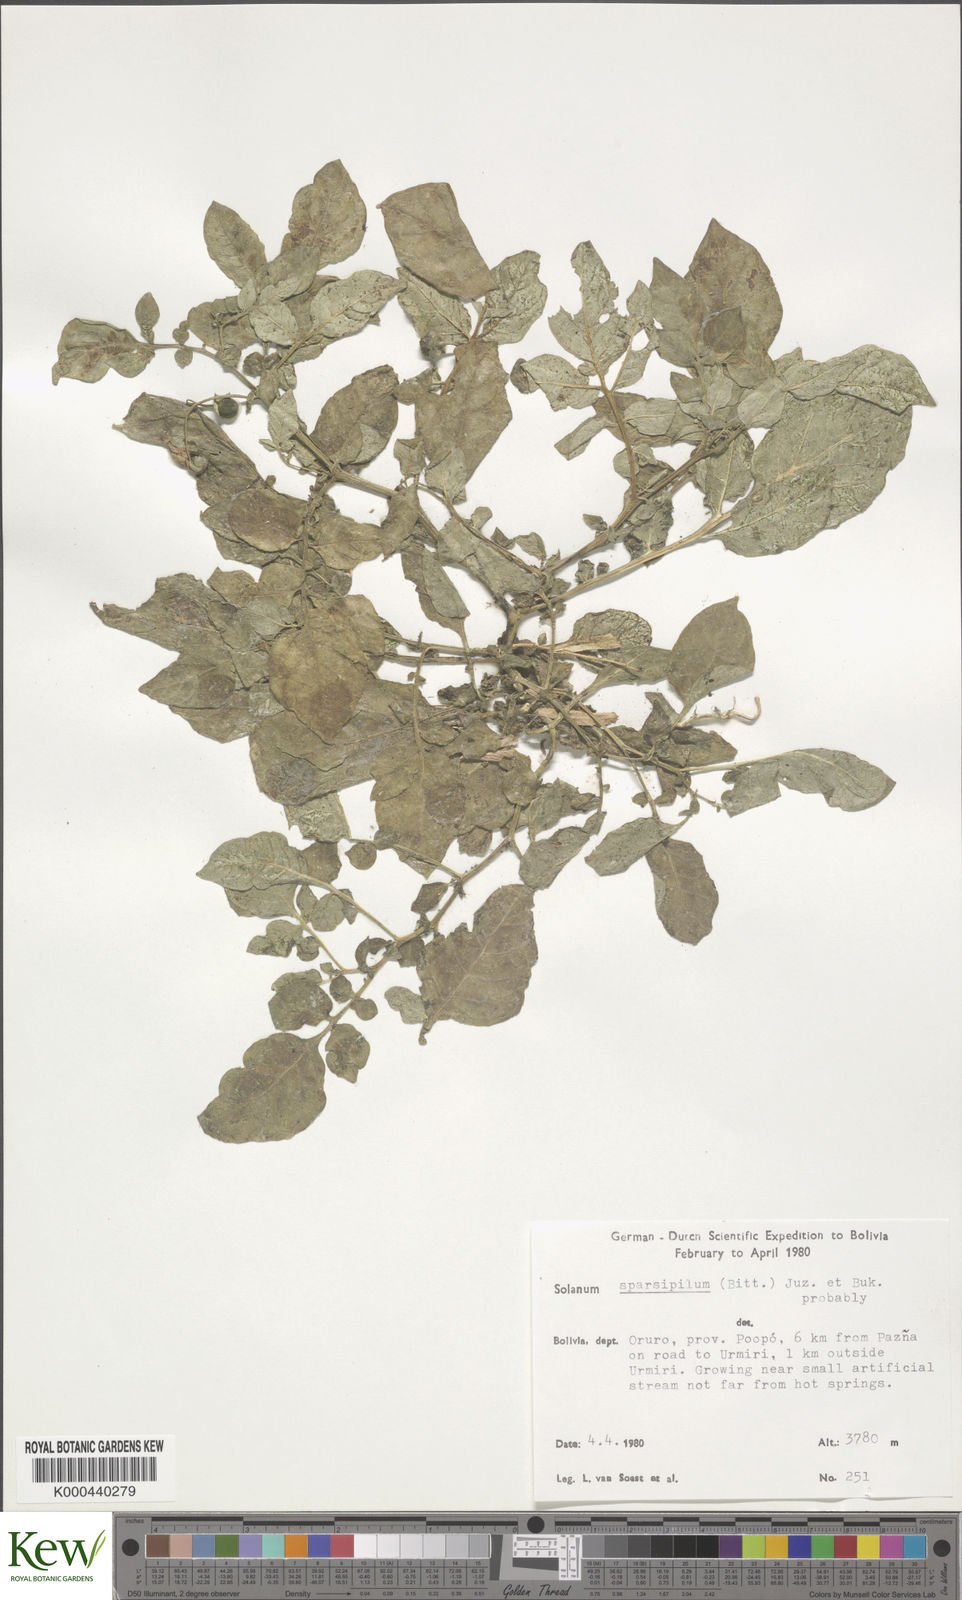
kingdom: Plantae
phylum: Tracheophyta
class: Magnoliopsida
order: Solanales
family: Solanaceae
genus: Solanum
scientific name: Solanum brevicaule
